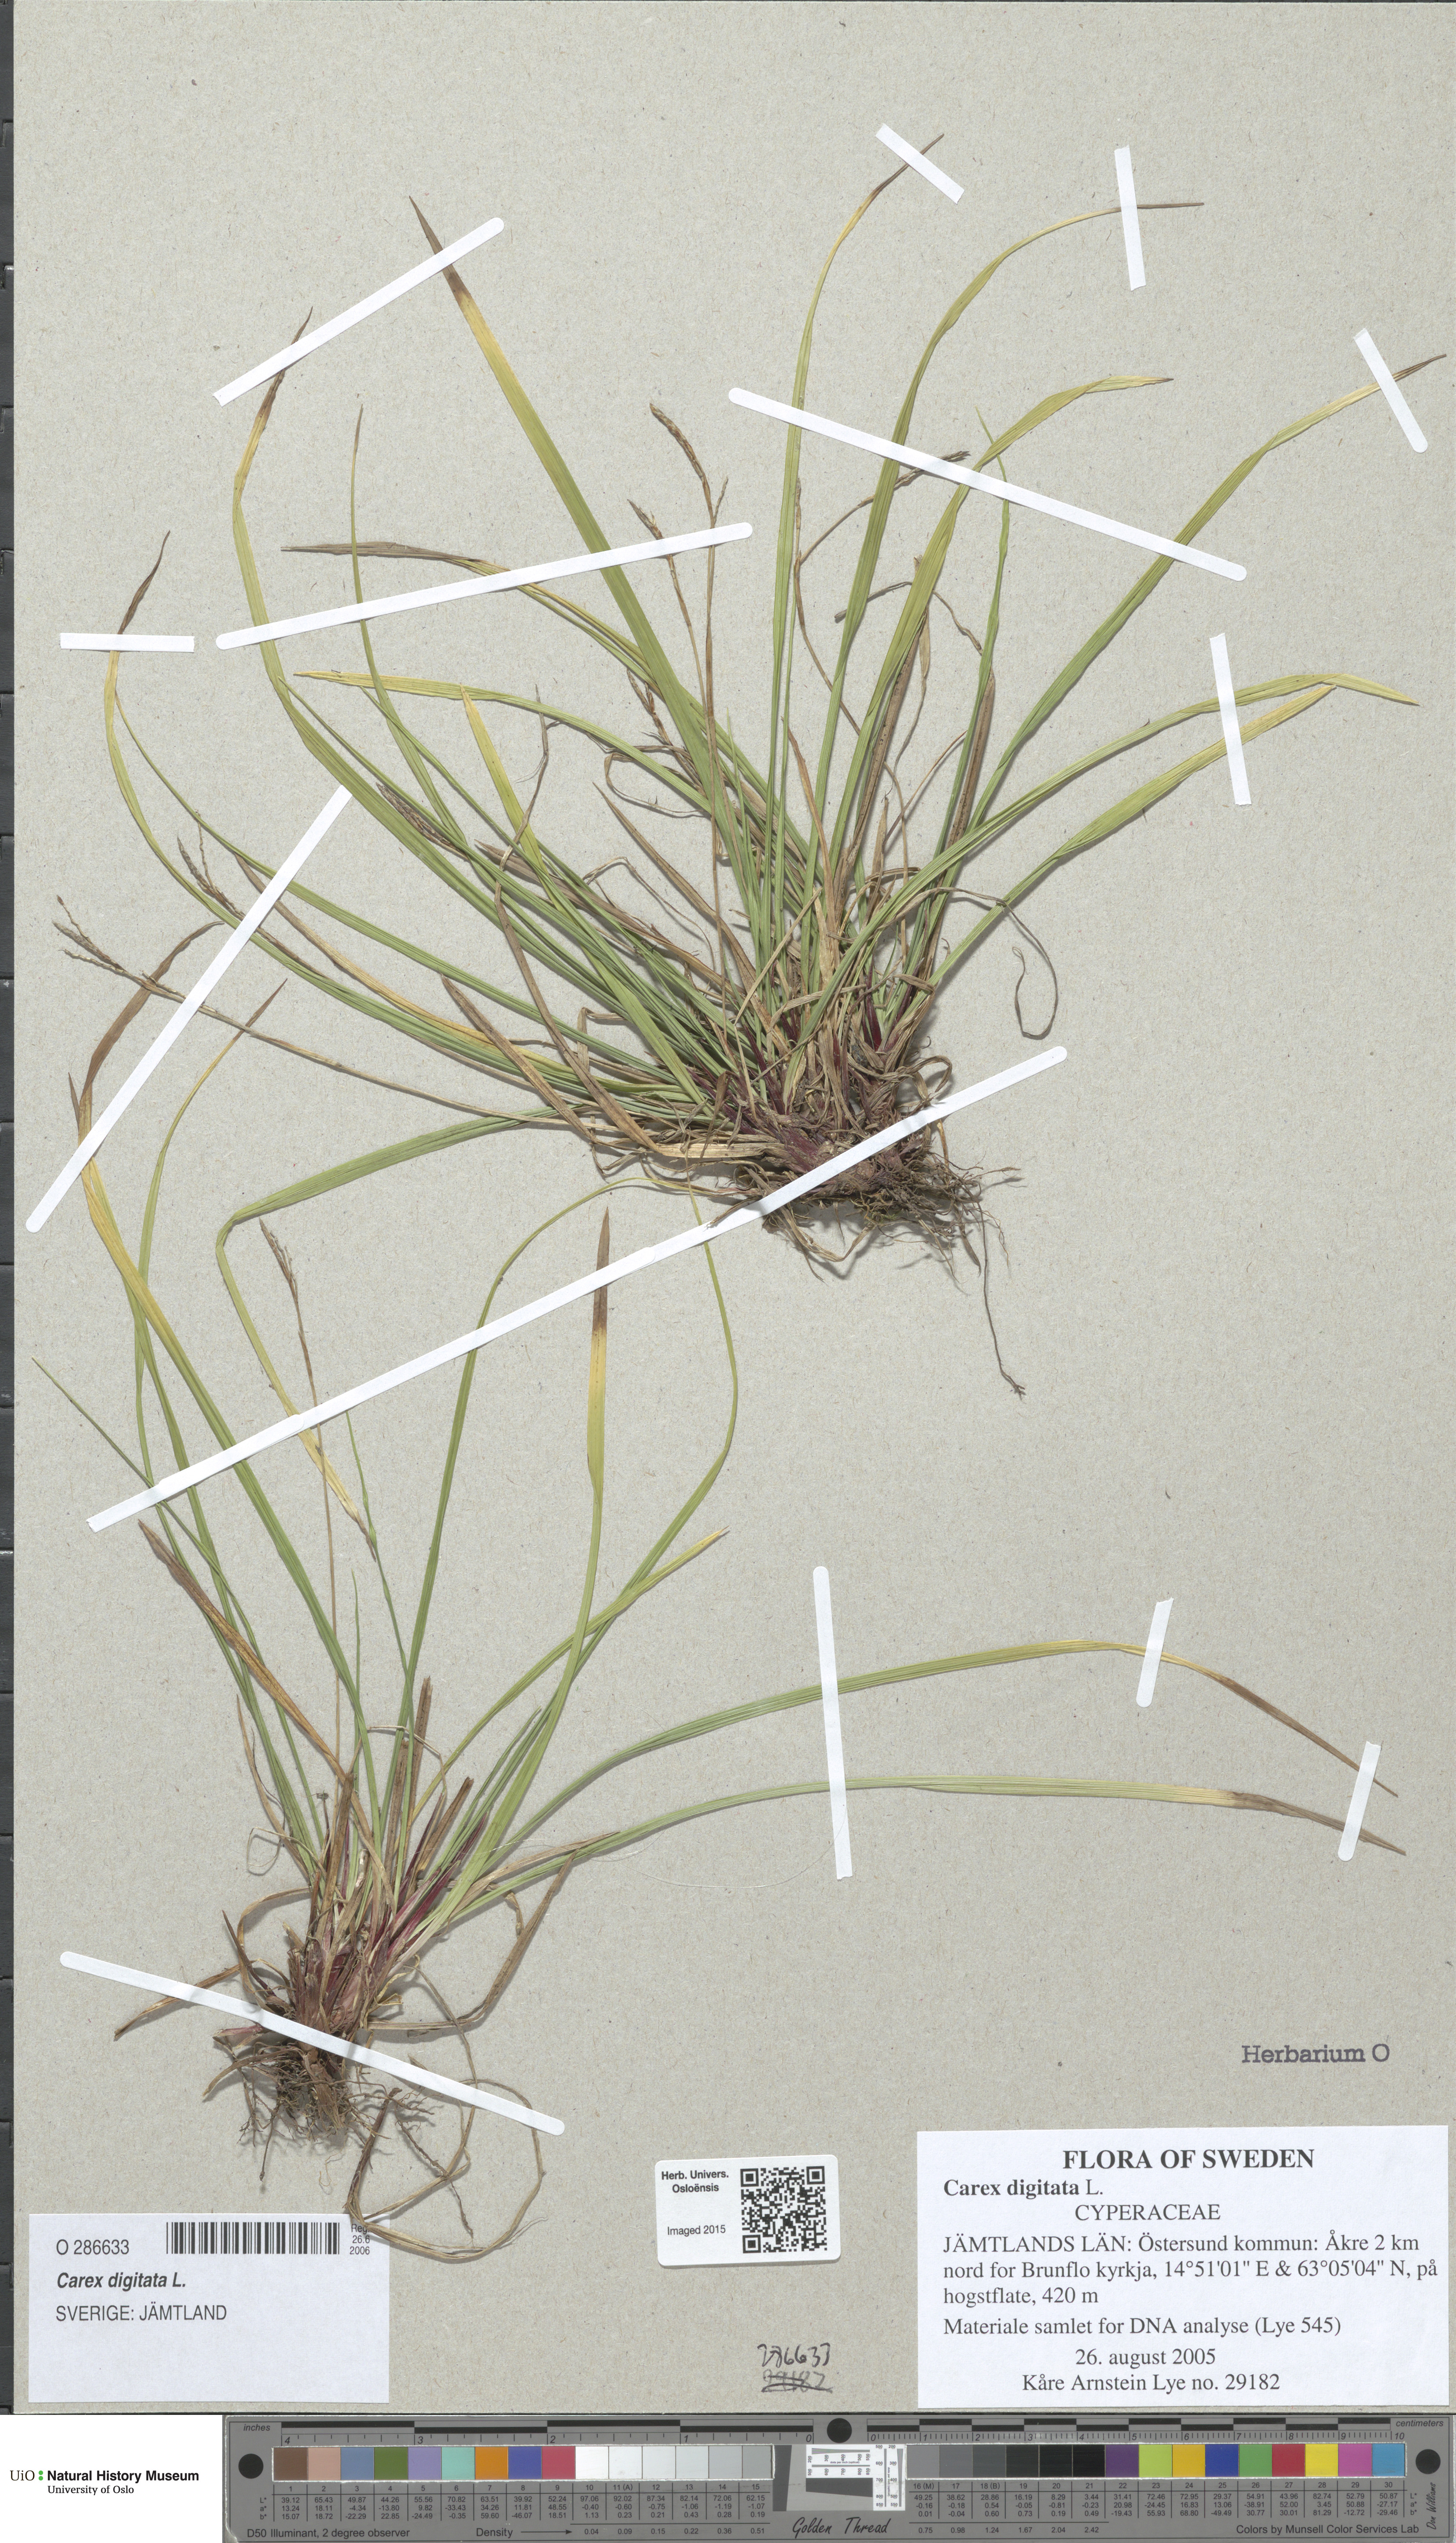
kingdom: Plantae
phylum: Tracheophyta
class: Liliopsida
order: Poales
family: Cyperaceae
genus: Carex
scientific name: Carex digitata
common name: Fingered sedge
